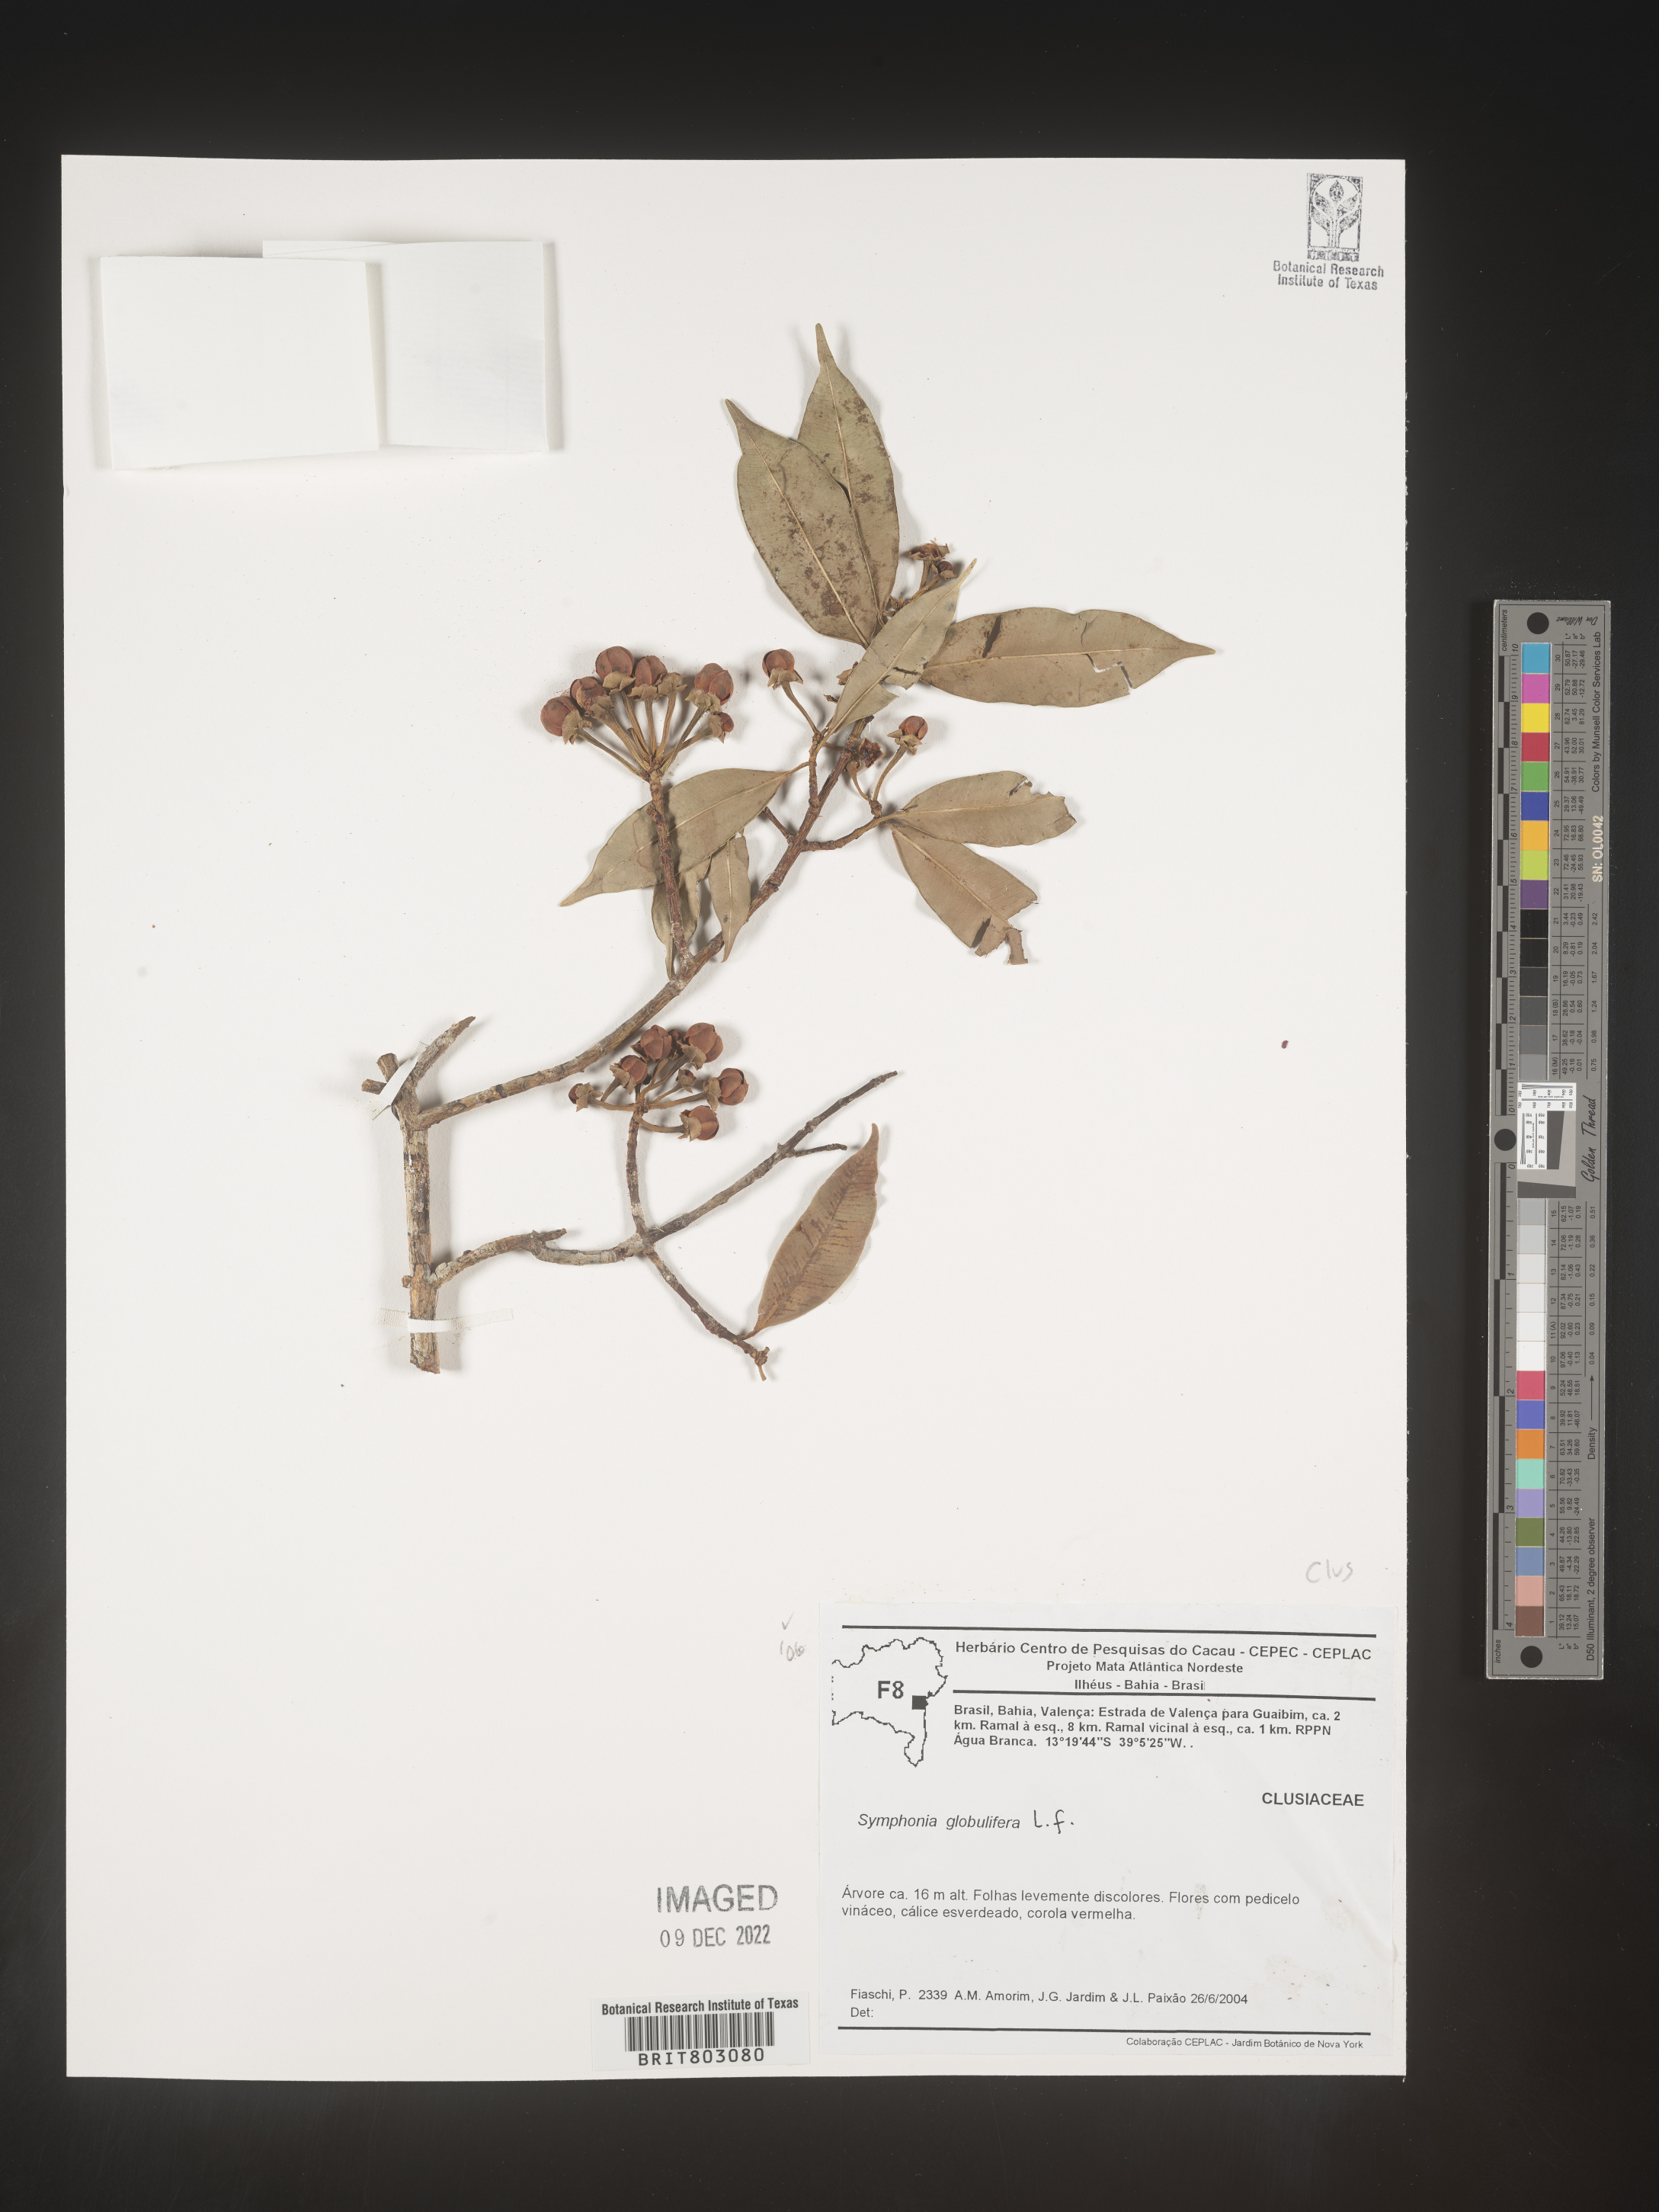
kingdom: Plantae
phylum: Tracheophyta
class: Magnoliopsida
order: Malpighiales
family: Clusiaceae
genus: Symphonia
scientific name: Symphonia
